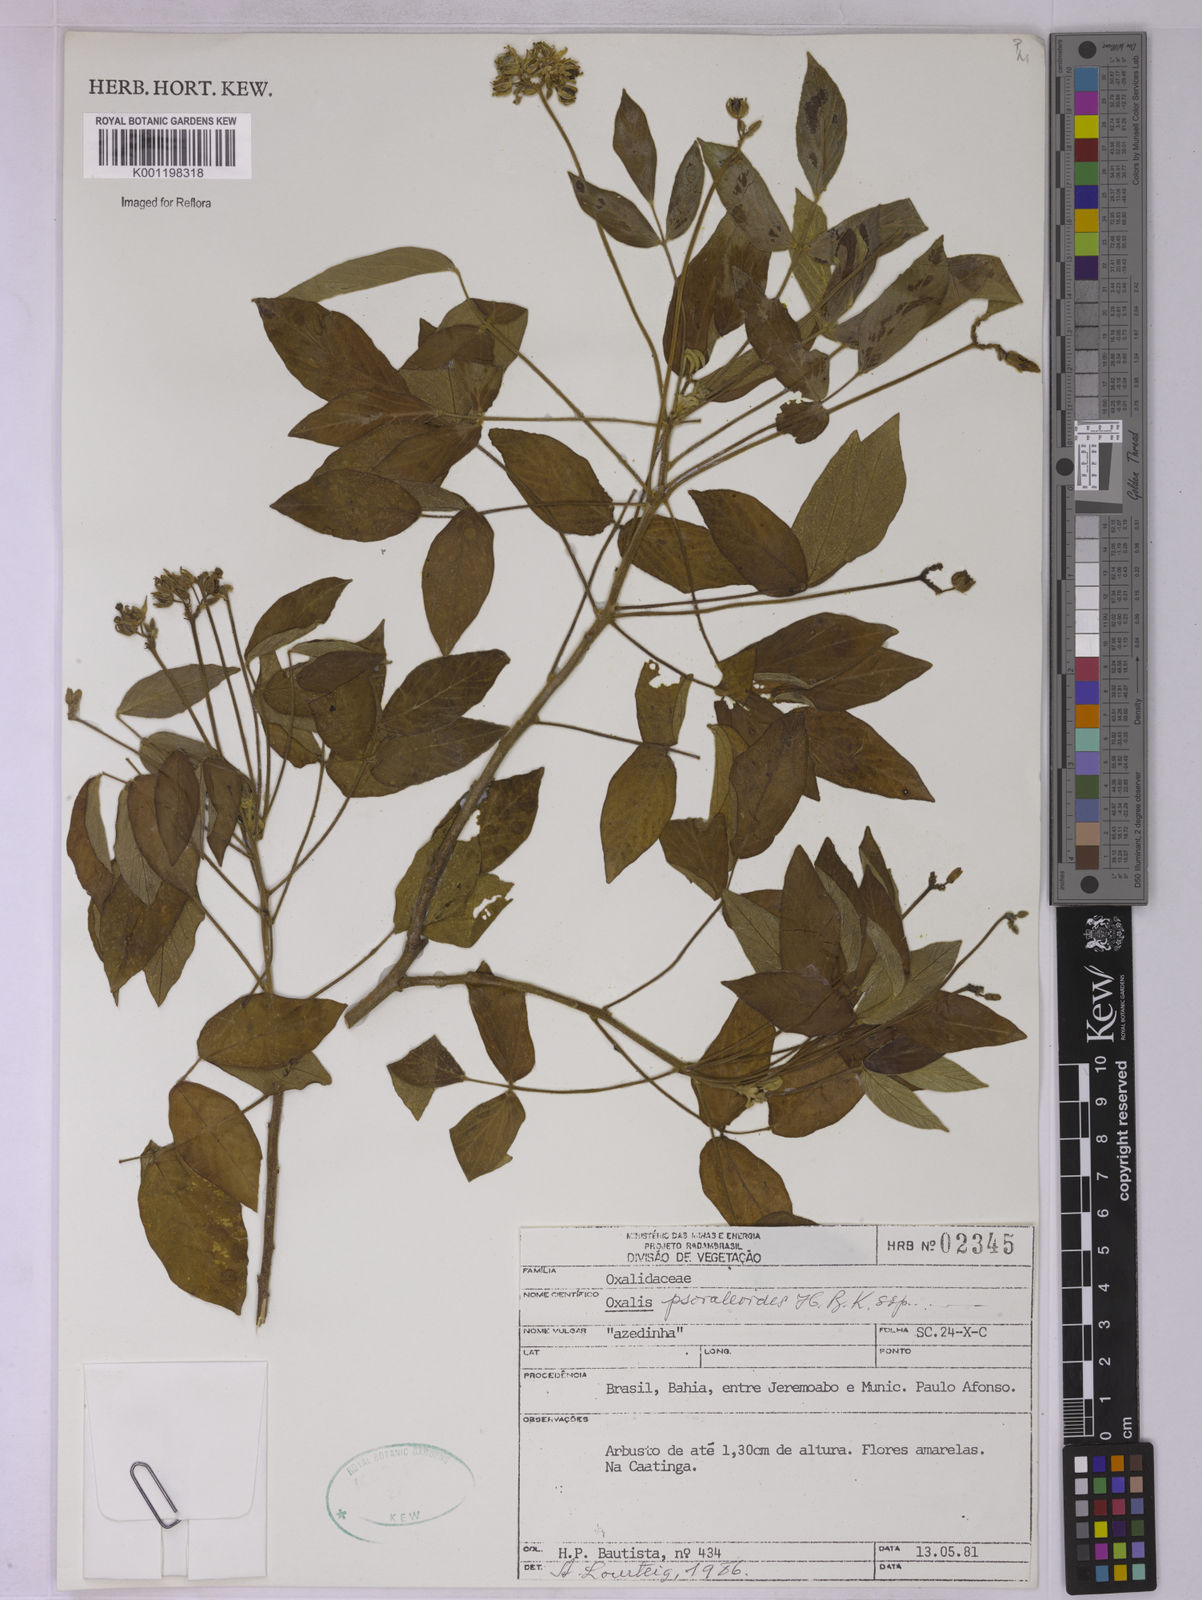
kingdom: Plantae
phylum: Tracheophyta
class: Magnoliopsida
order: Oxalidales
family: Oxalidaceae
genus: Oxalis
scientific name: Oxalis psoraleoides
